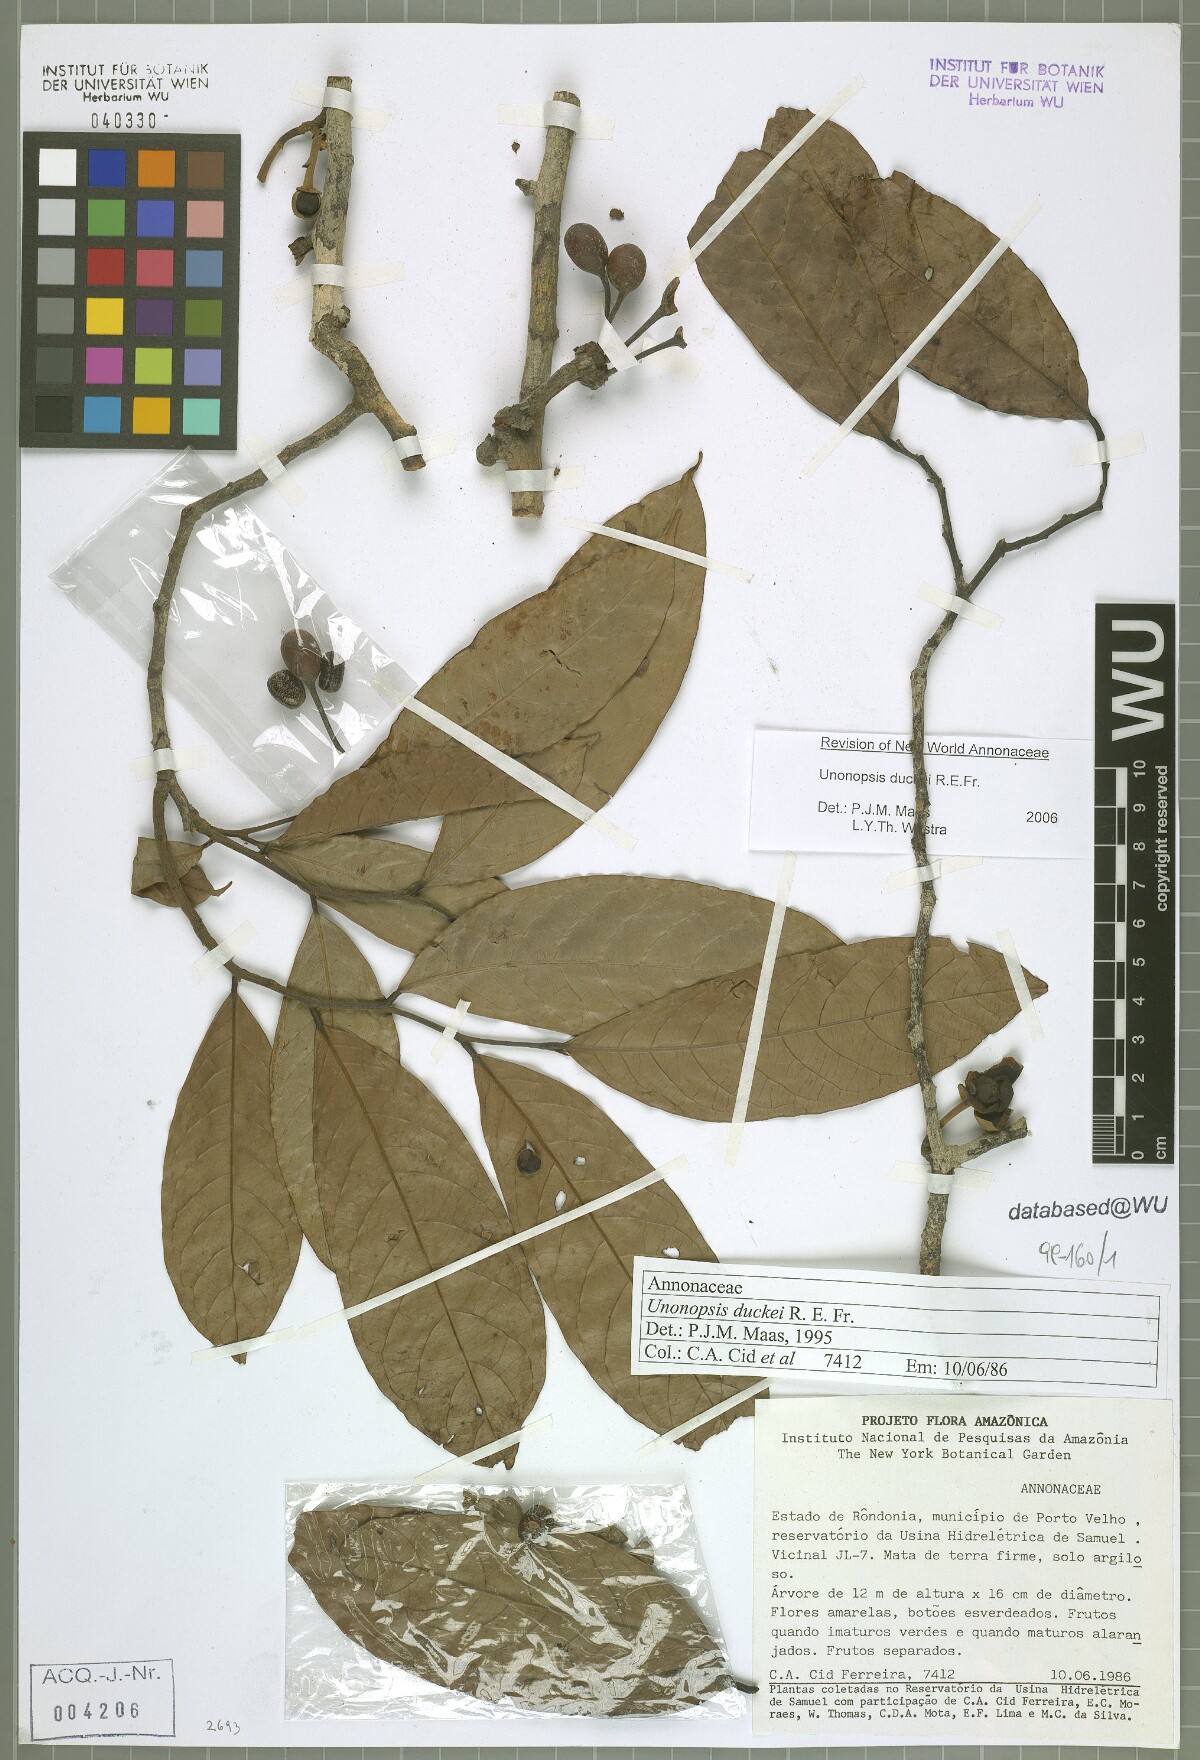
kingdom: Plantae
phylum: Tracheophyta
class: Magnoliopsida
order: Magnoliales
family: Annonaceae
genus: Unonopsis
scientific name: Unonopsis duckei
